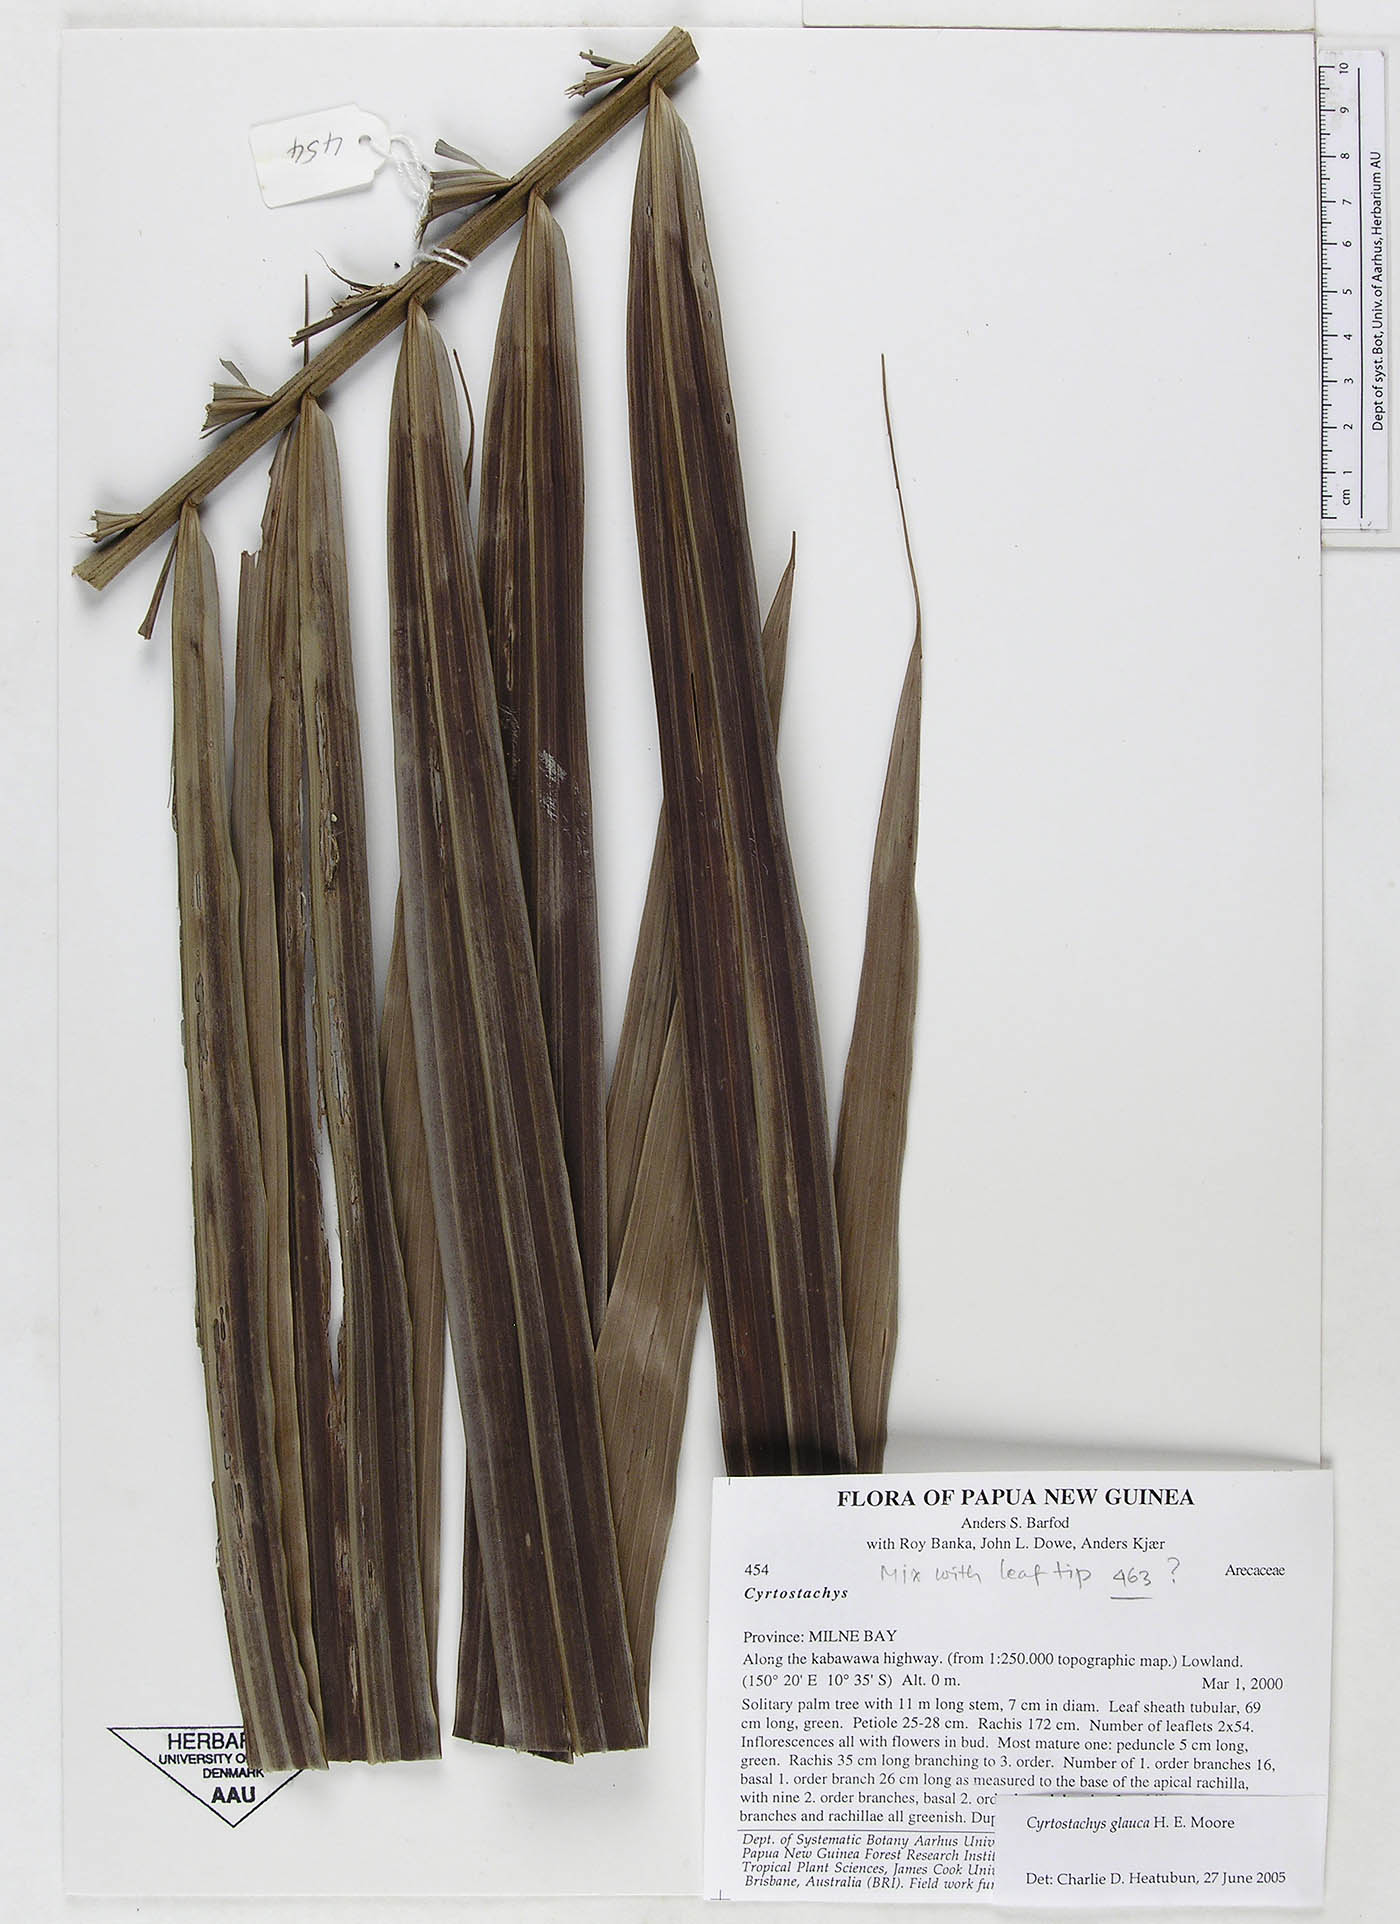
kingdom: Plantae
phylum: Tracheophyta
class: Liliopsida
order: Arecales
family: Arecaceae
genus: Cyrtostachys
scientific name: Cyrtostachys
